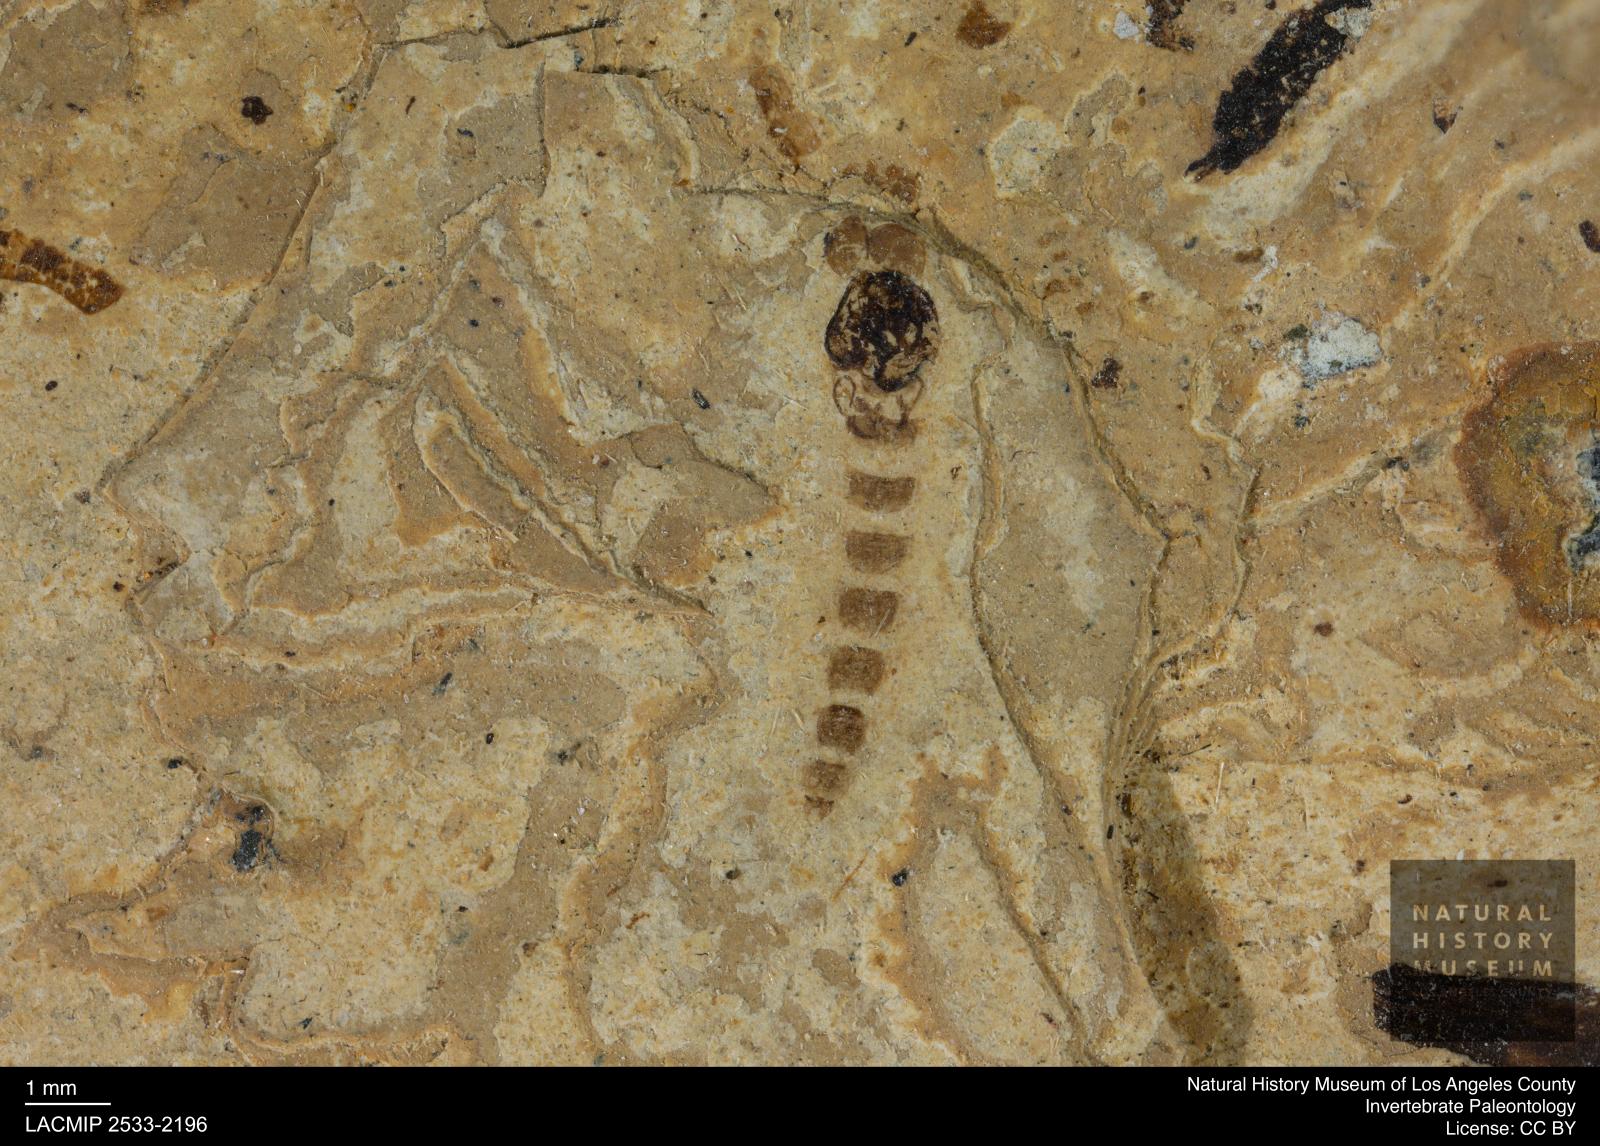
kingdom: Animalia
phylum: Arthropoda
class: Insecta
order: Diptera
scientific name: Diptera
